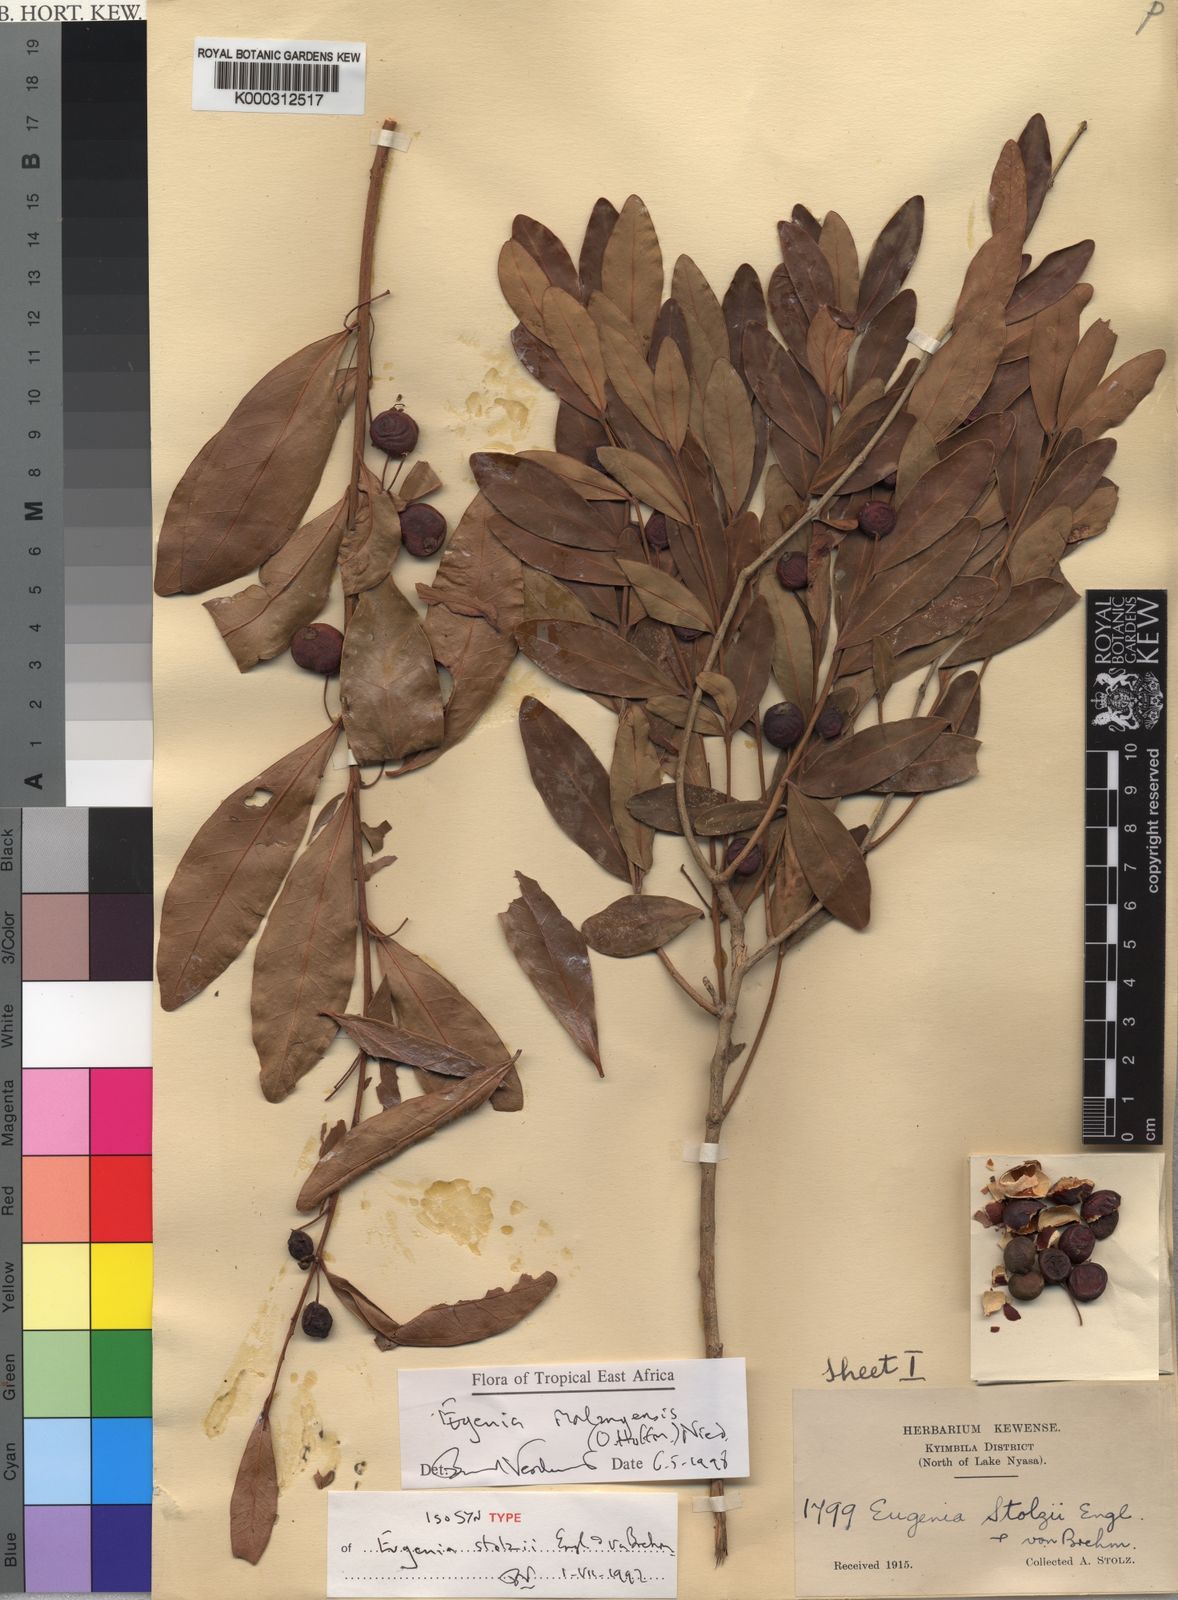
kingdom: Plantae
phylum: Tracheophyta
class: Magnoliopsida
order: Myrtales
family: Myrtaceae
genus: Eugenia
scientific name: Eugenia malangensis
